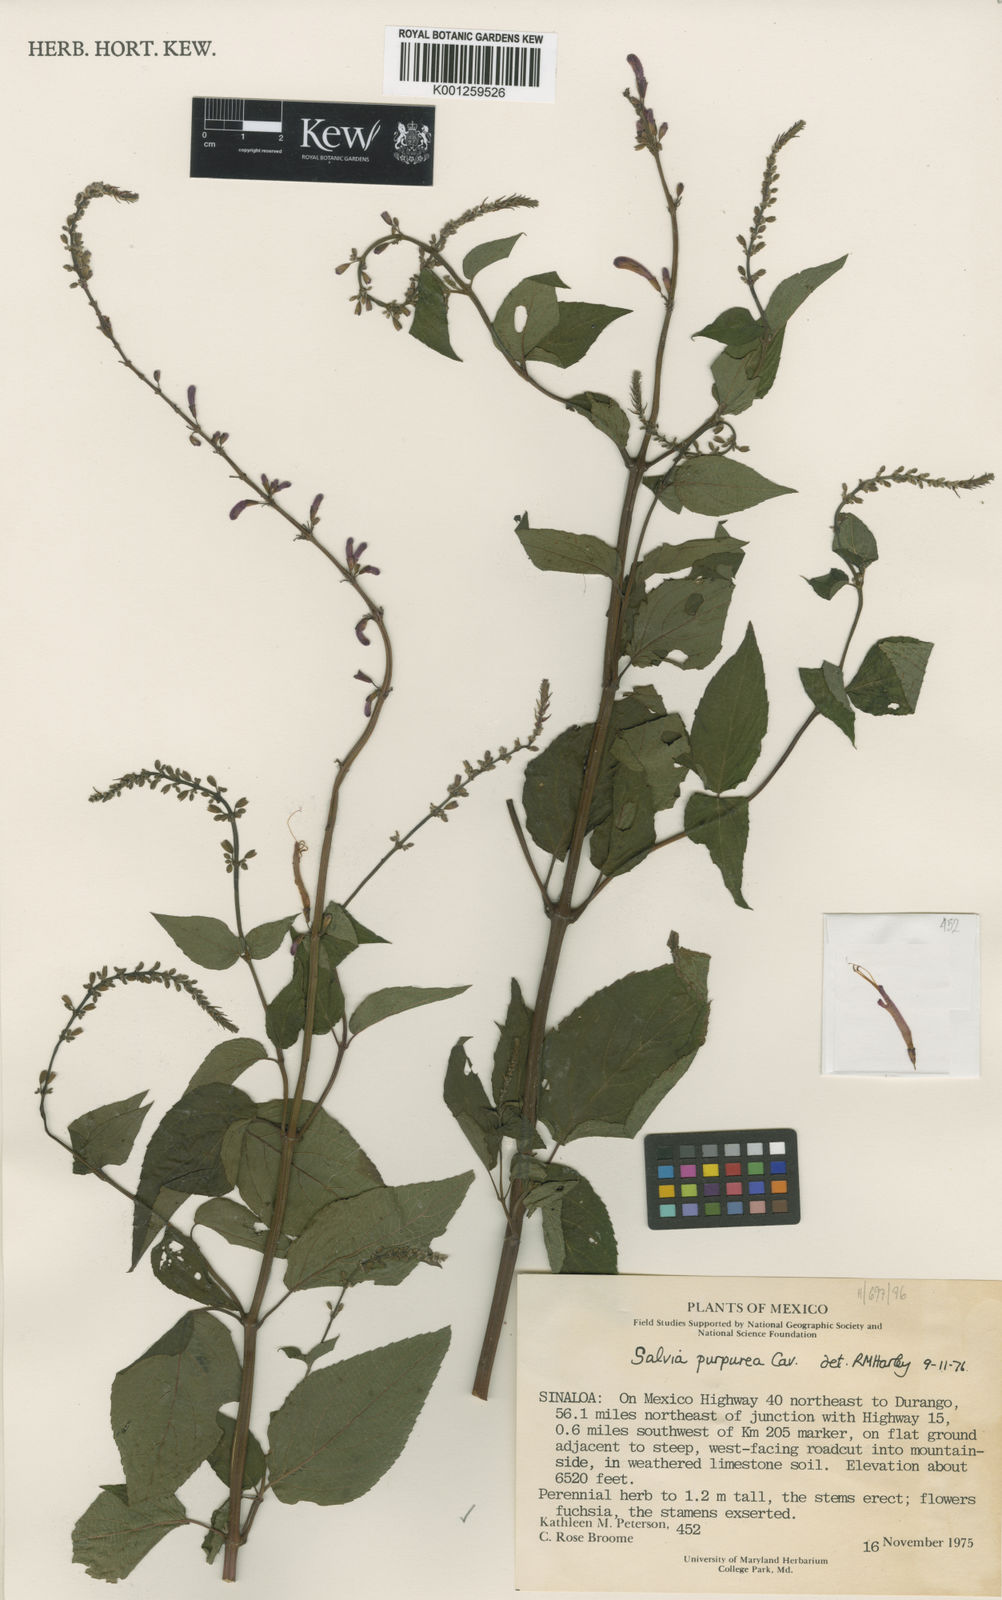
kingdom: Plantae
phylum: Tracheophyta
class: Magnoliopsida
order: Lamiales
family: Lamiaceae
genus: Salvia
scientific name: Salvia purpurea
